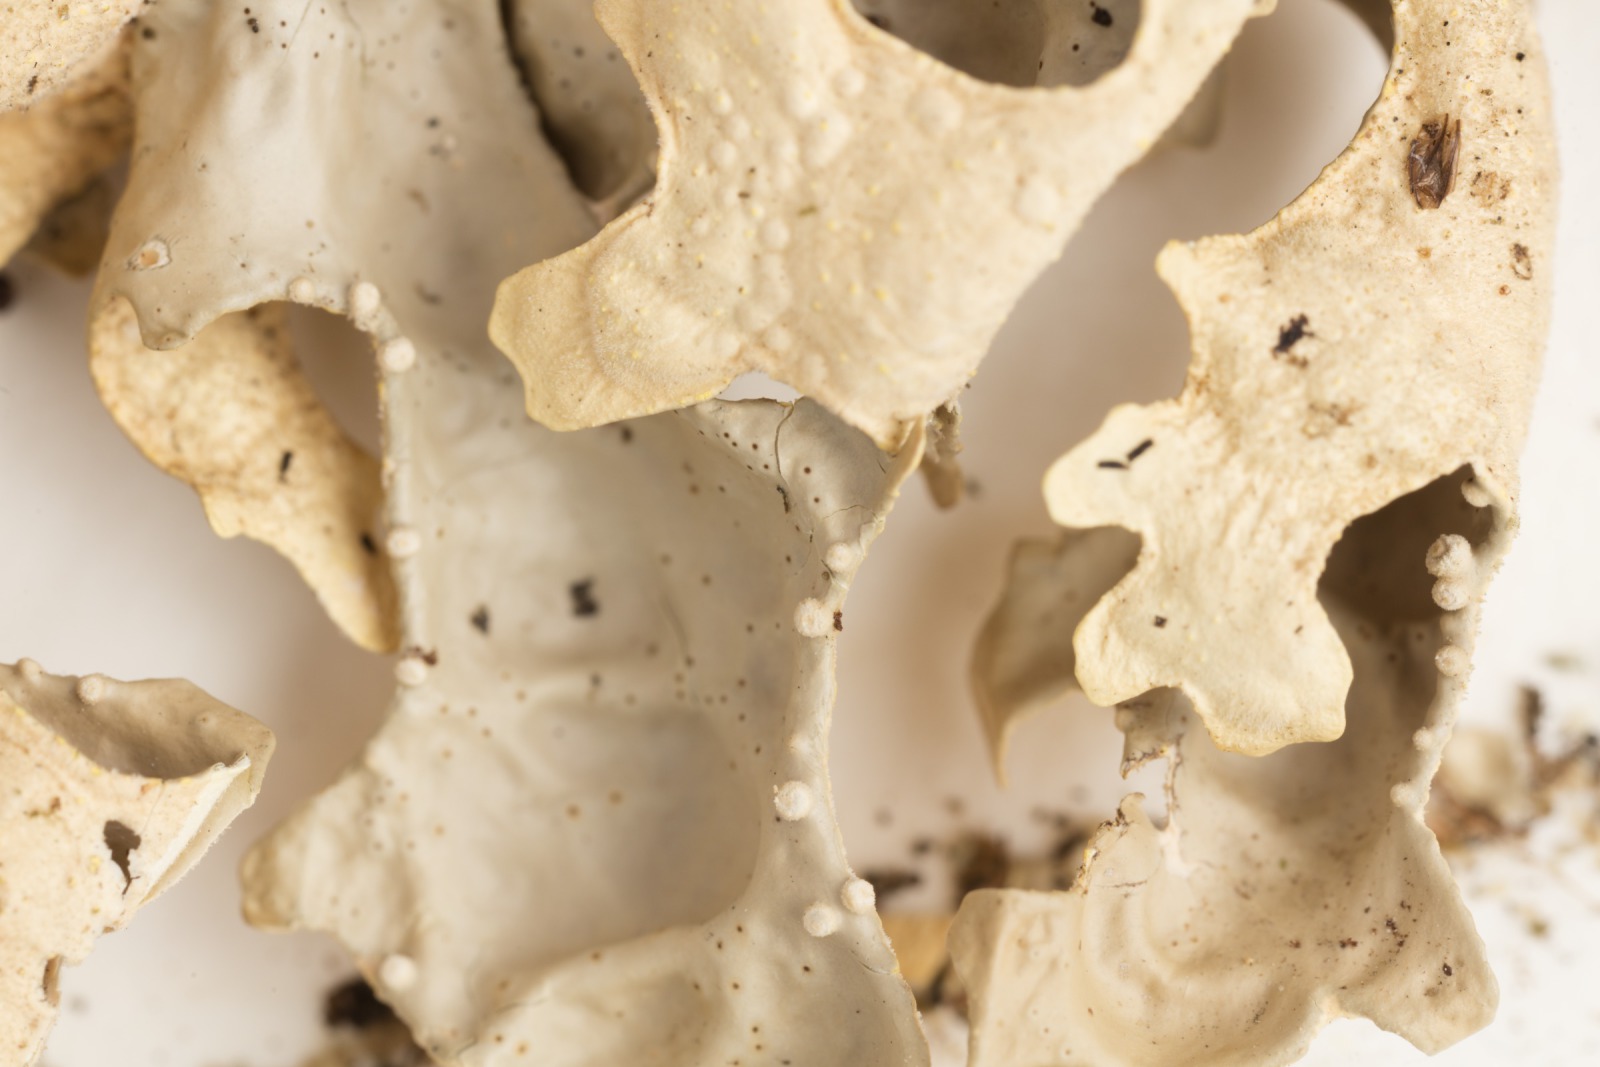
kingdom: Fungi
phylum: Ascomycota
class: Lecanoromycetes
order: Peltigerales
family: Lobariaceae
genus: Pseudocyphellaria
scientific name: Pseudocyphellaria carpoloma
